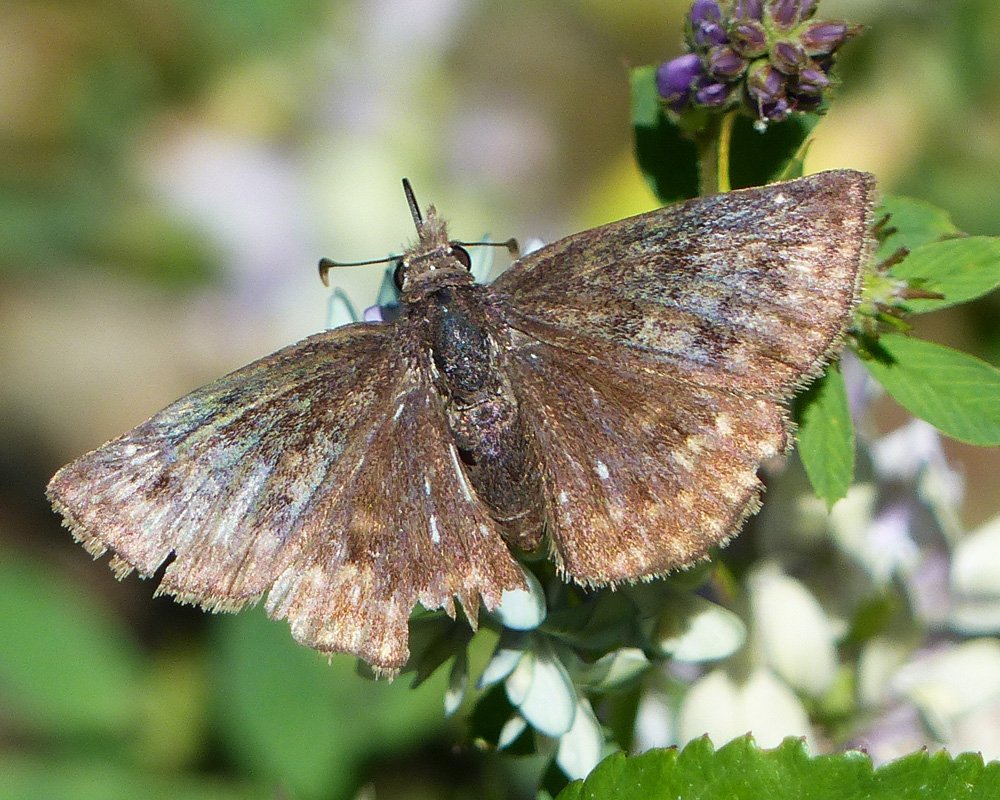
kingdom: Animalia
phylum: Arthropoda
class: Insecta
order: Lepidoptera
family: Hesperiidae
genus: Erynnis
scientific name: Erynnis icelus
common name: Dreamy Duskywing
